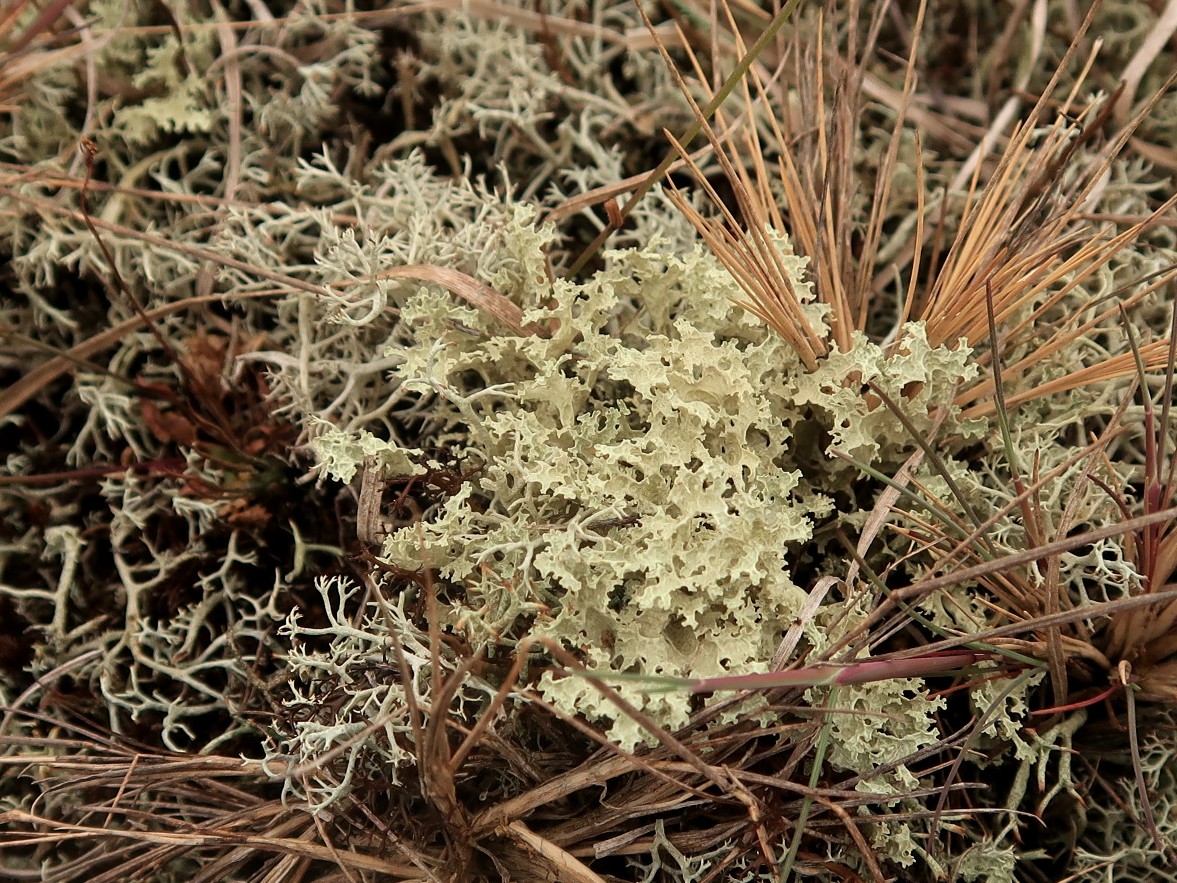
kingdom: Fungi
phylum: Ascomycota
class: Lecanoromycetes
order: Lecanorales
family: Parmeliaceae
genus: Nephromopsis
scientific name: Nephromopsis nivalis
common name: sne-kruslav
